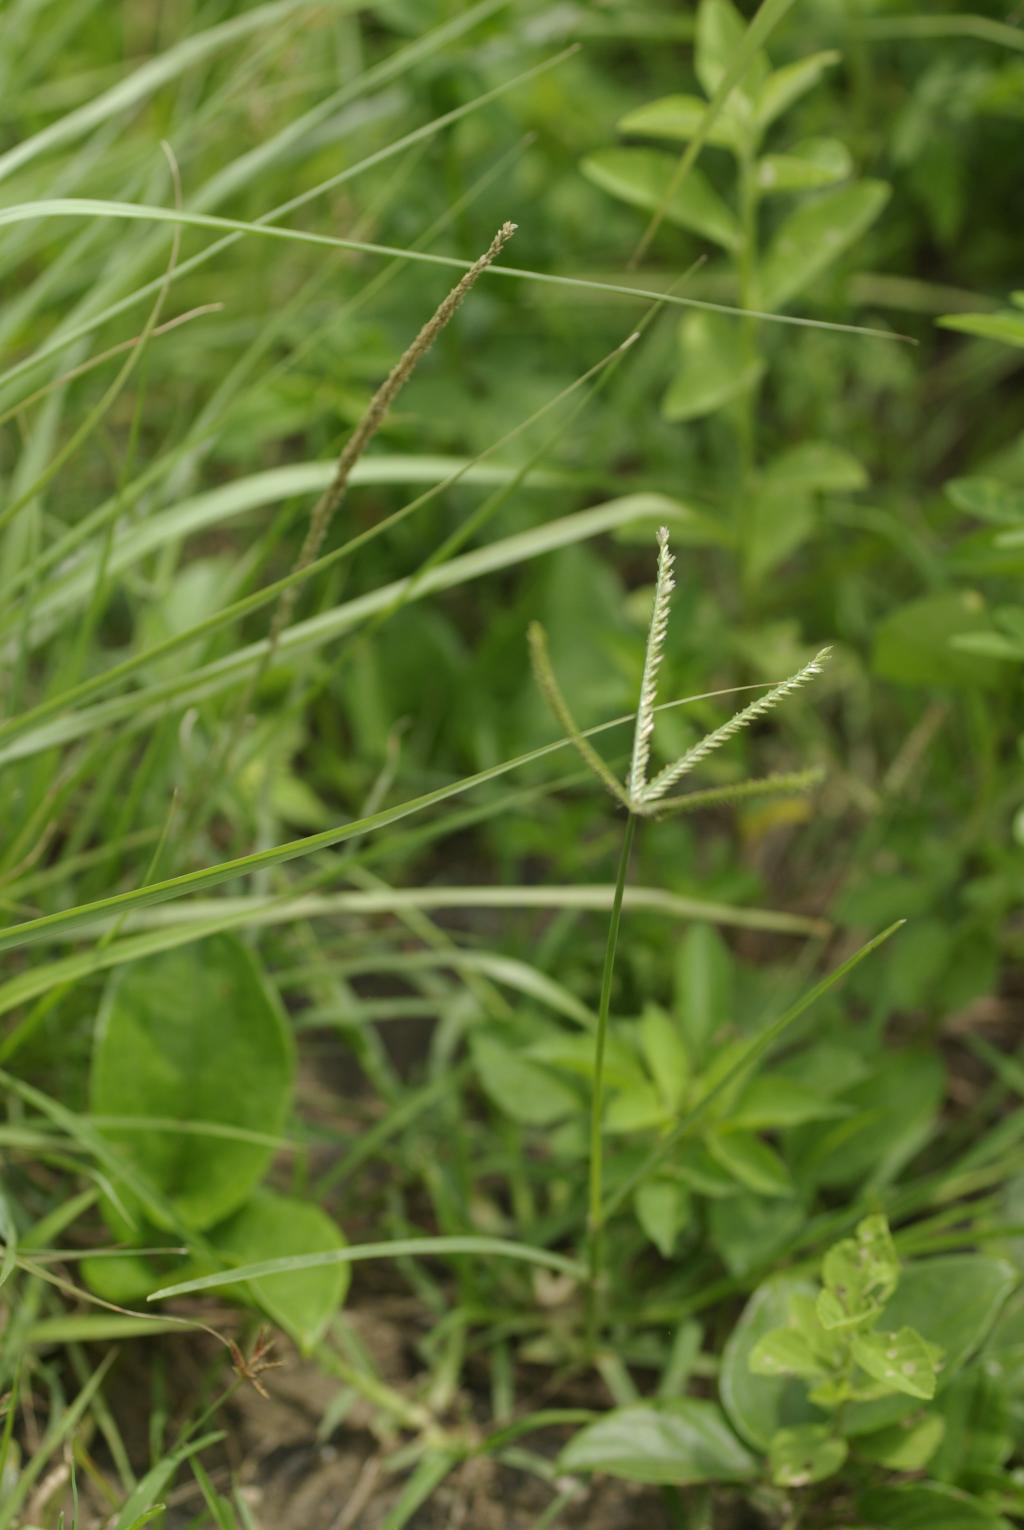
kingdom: Plantae
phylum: Tracheophyta
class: Liliopsida
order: Poales
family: Poaceae
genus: Eleusine
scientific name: Eleusine indica
